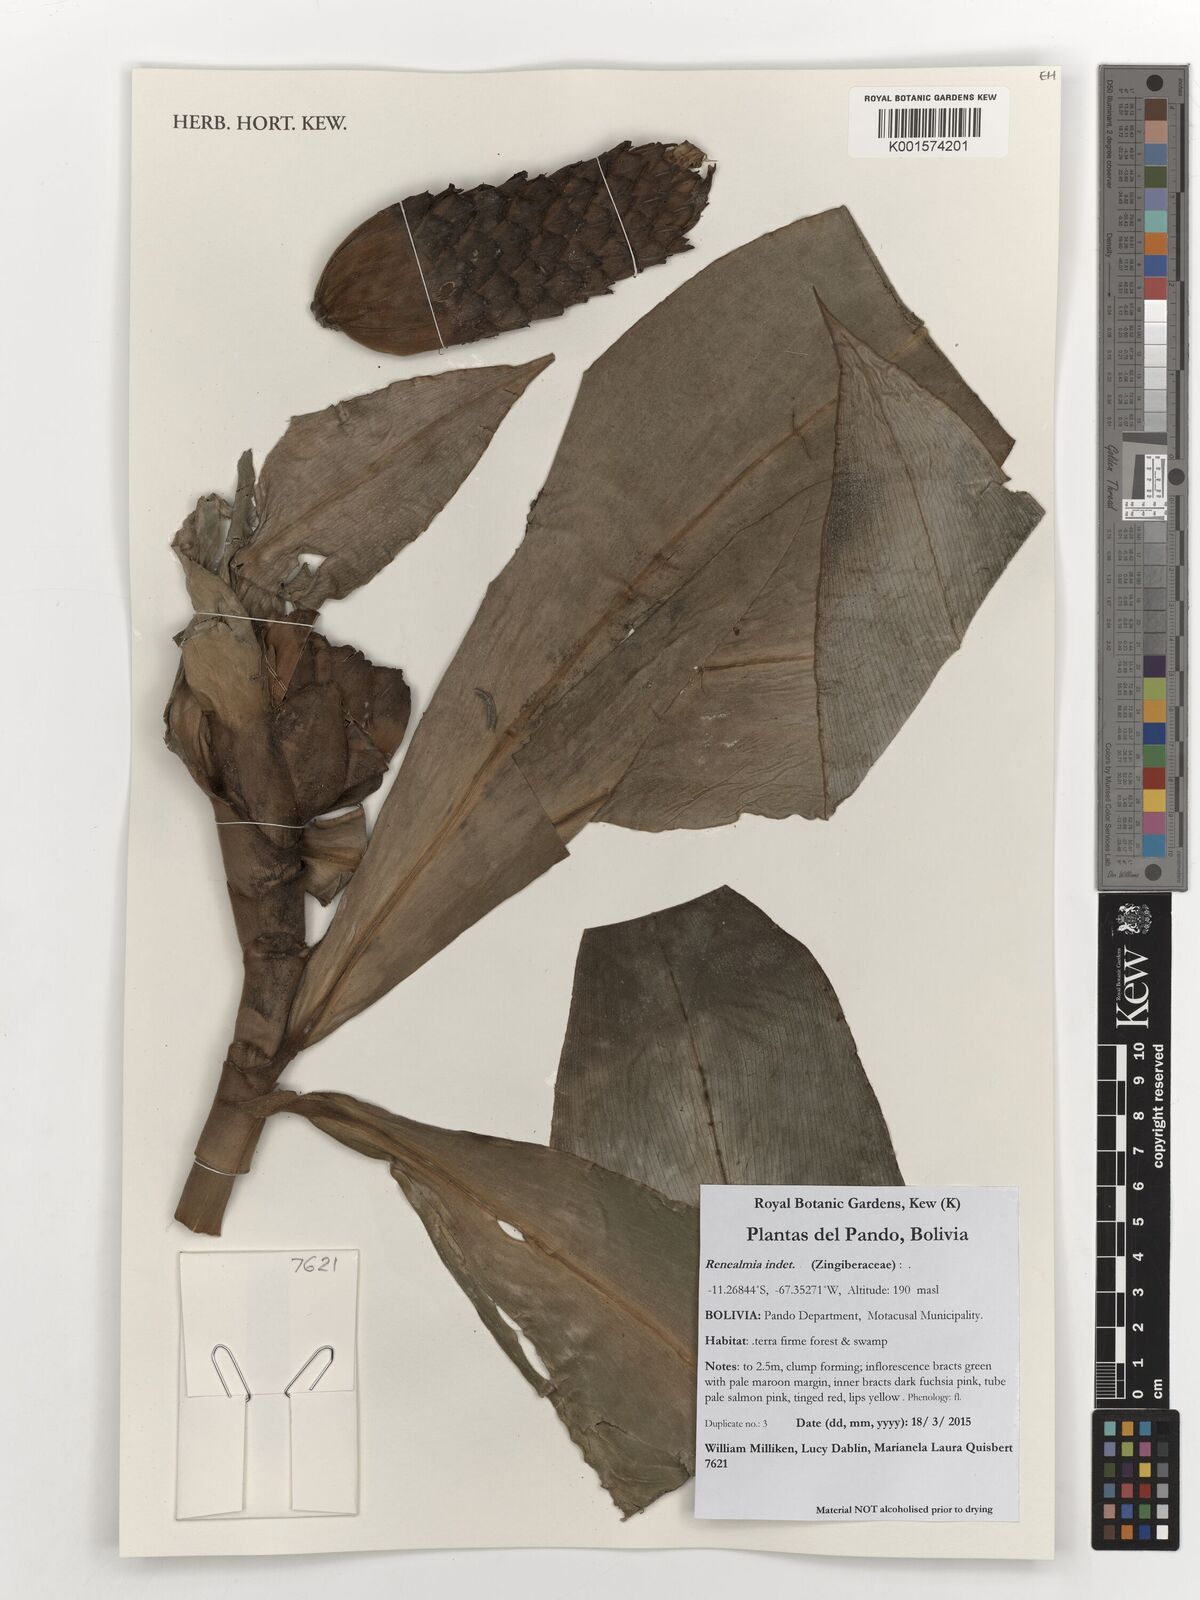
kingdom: Plantae
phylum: Tracheophyta
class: Liliopsida
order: Zingiberales
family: Zingiberaceae
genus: Renealmia
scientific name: Renealmia
